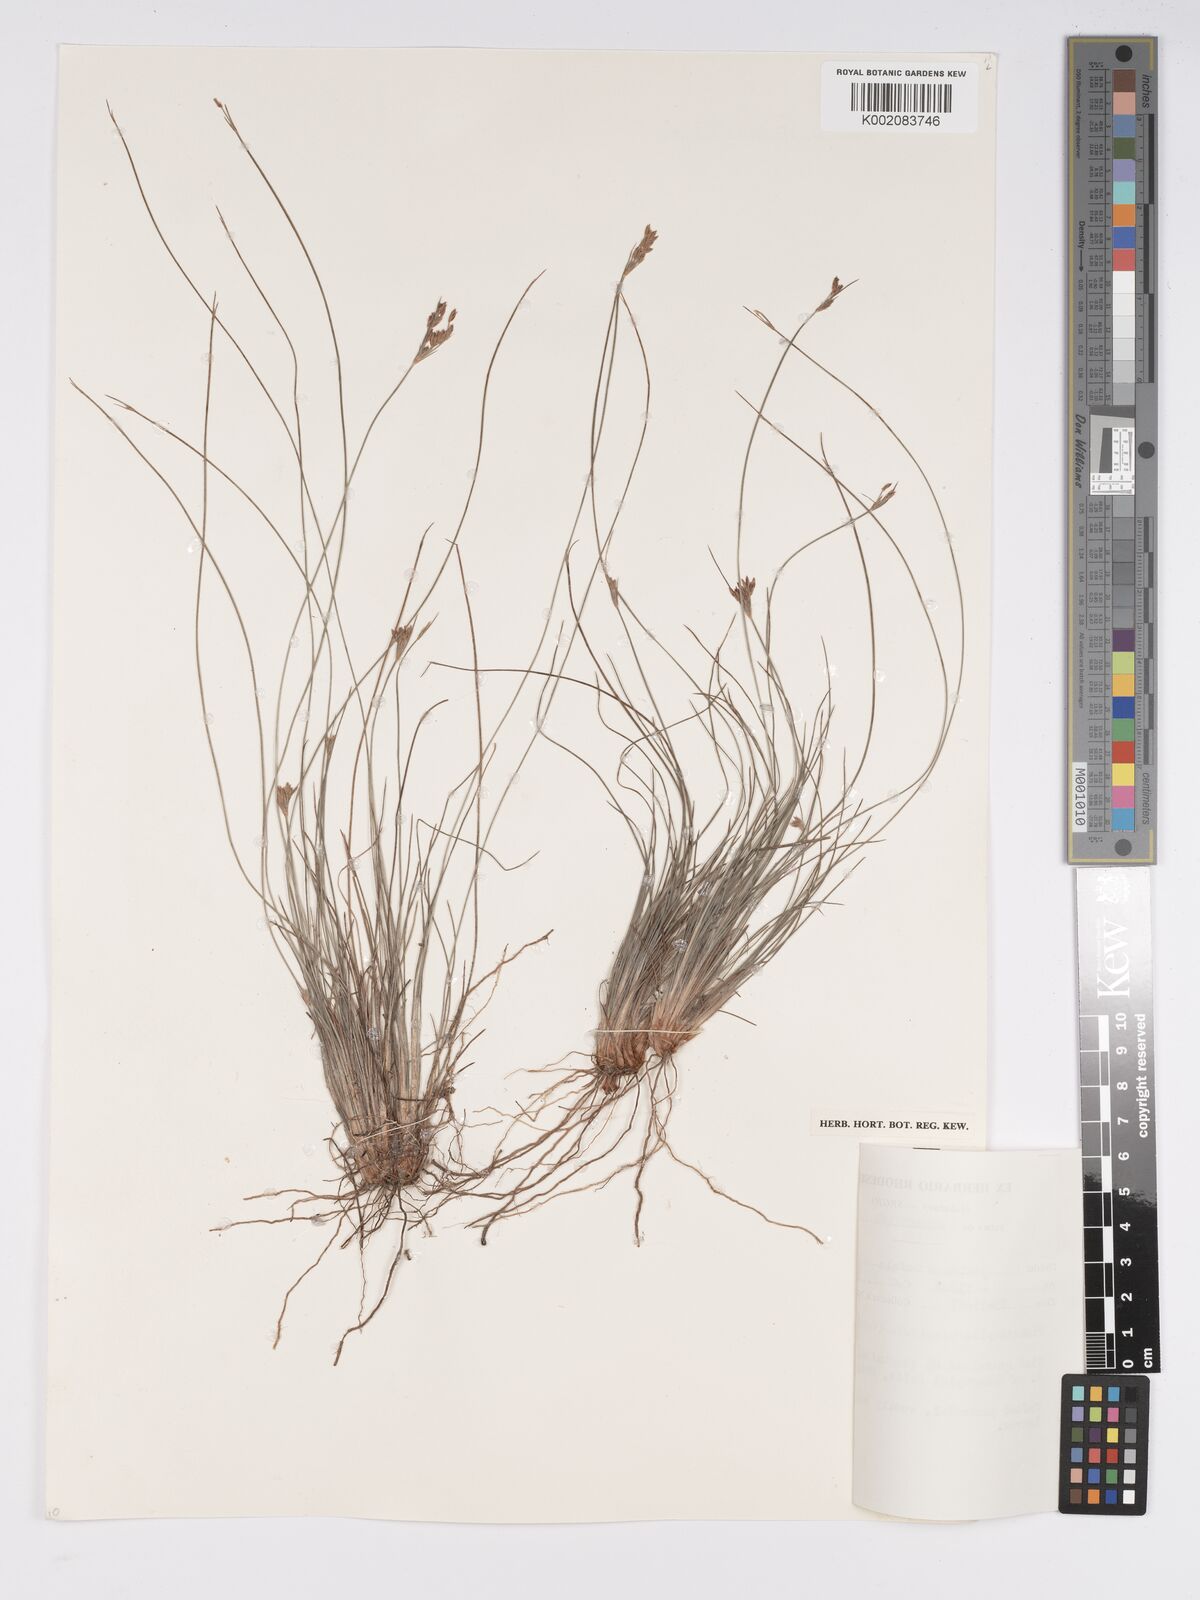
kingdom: Plantae
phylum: Tracheophyta
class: Liliopsida
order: Poales
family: Cyperaceae
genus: Bulbostylis
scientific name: Bulbostylis hispidula
